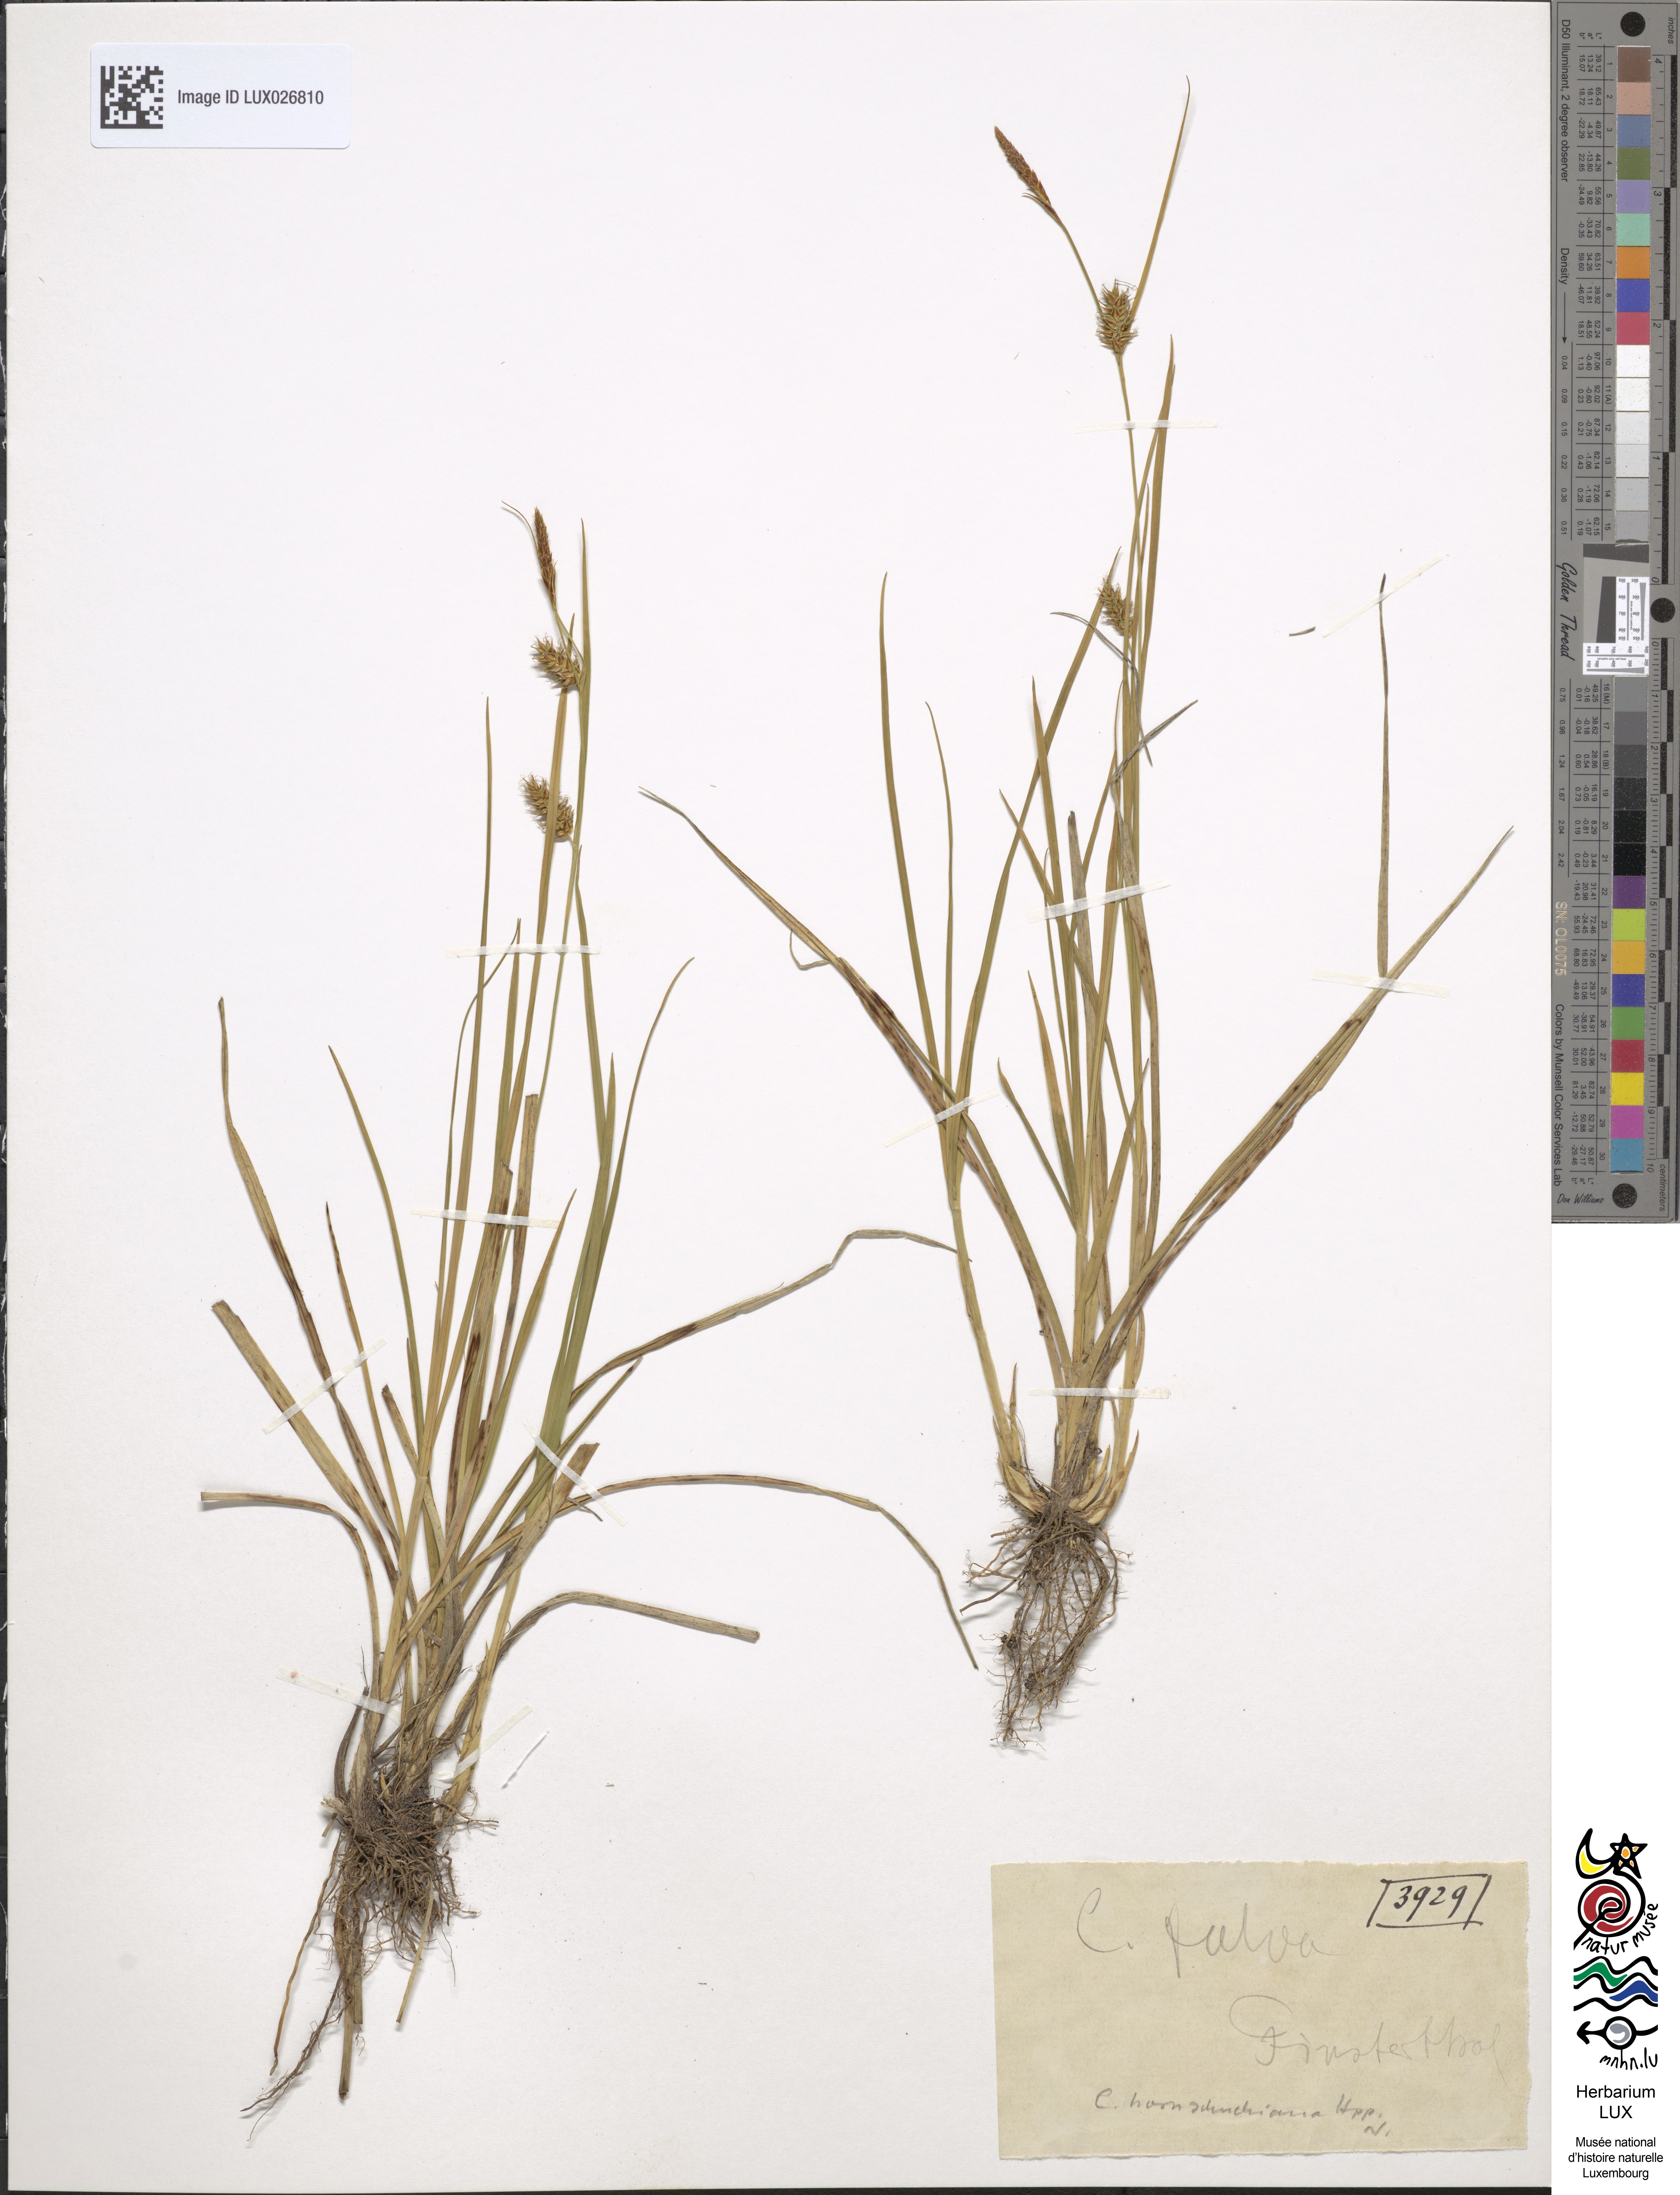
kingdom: Plantae
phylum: Tracheophyta
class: Liliopsida
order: Poales
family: Cyperaceae
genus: Carex
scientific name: Carex fulva
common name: Leutz's sedge
